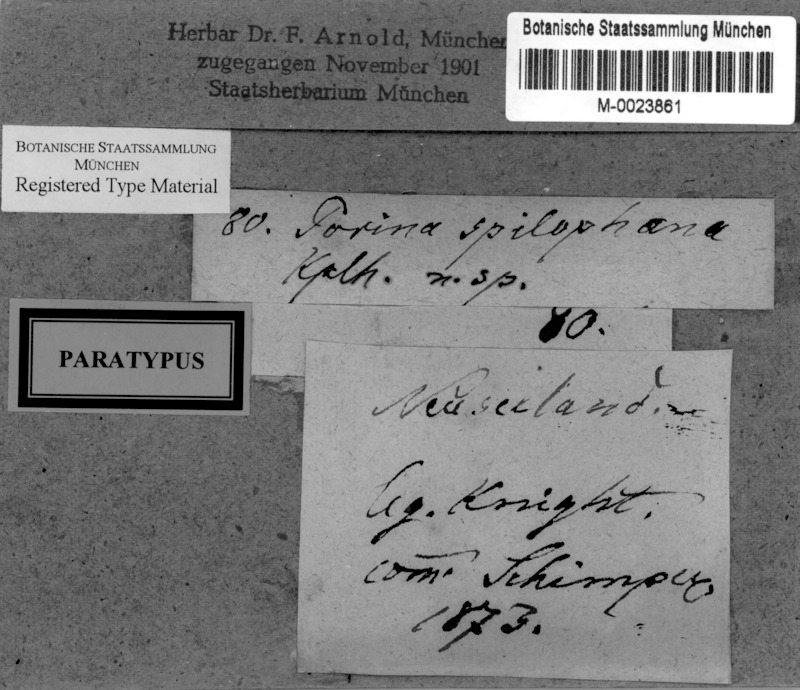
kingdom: Fungi
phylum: Ascomycota
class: Lecanoromycetes
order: Pertusariales
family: Pertusariaceae
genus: Segestria
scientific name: Segestria
